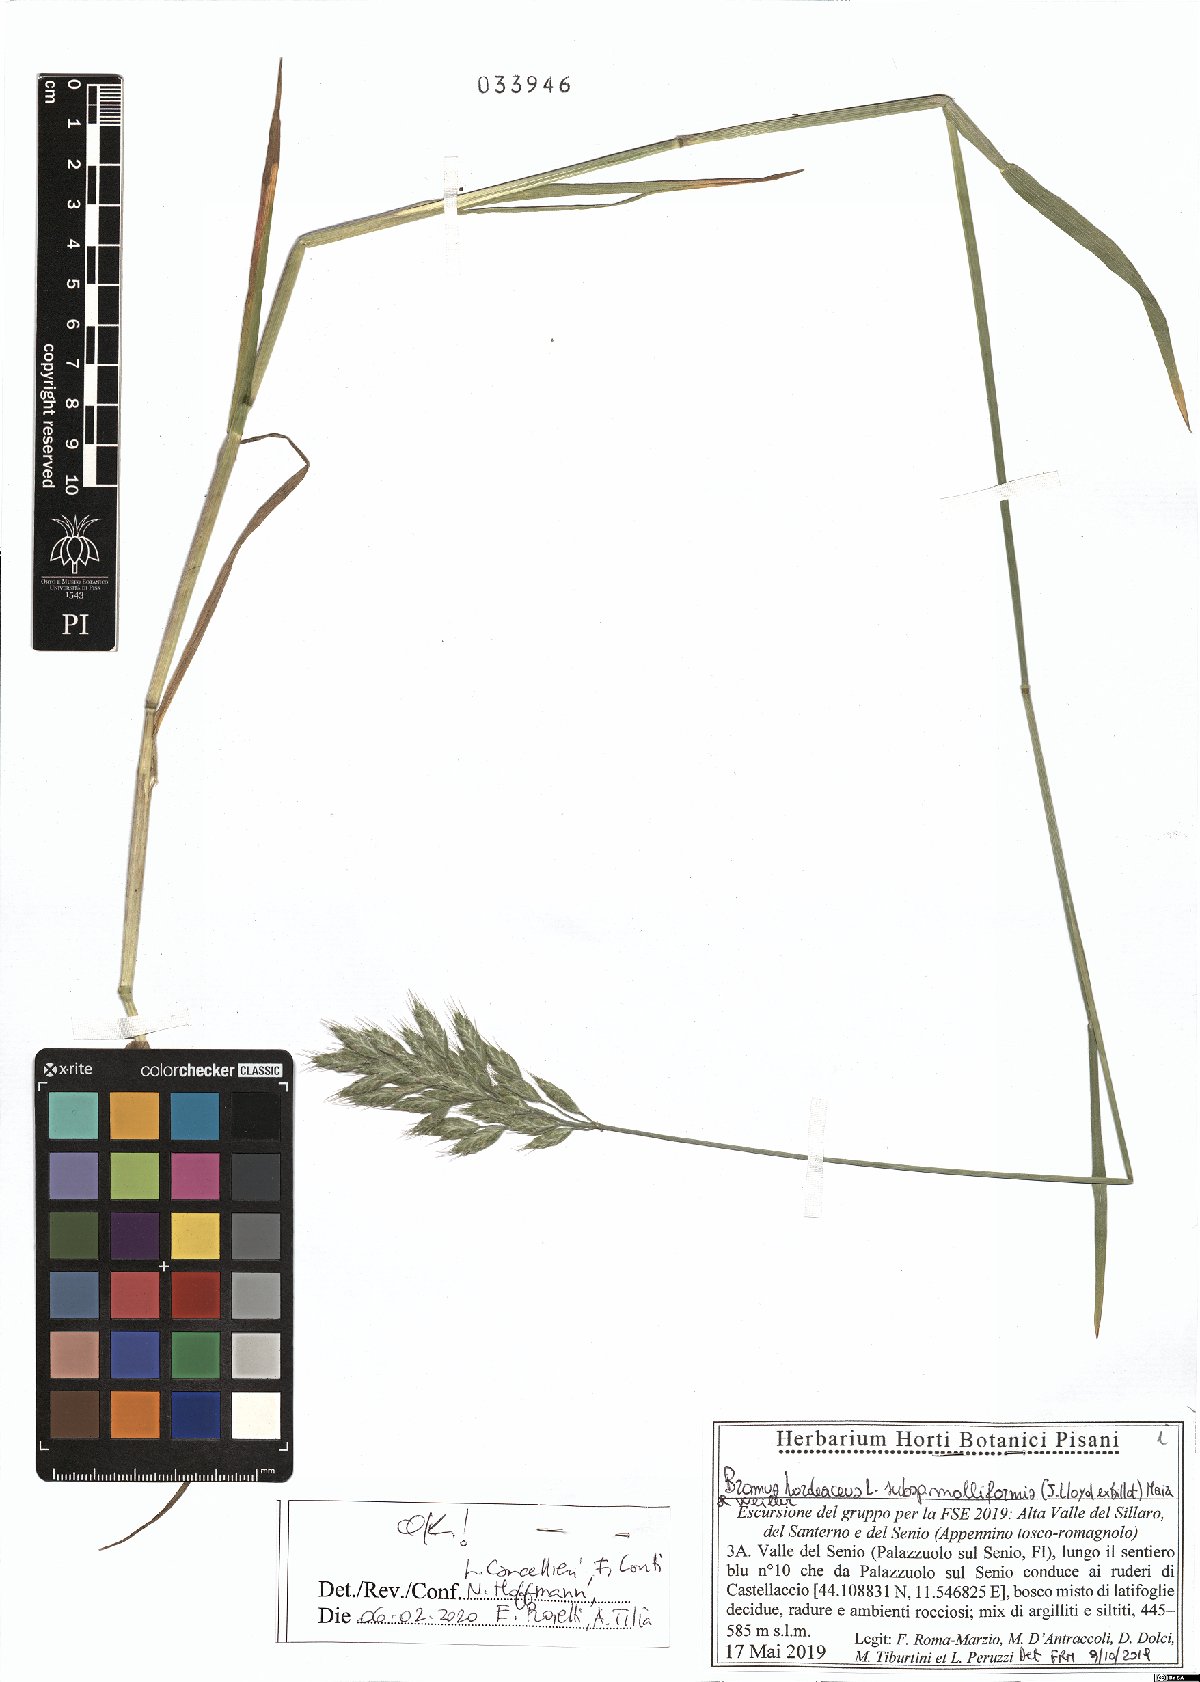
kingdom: Plantae
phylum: Tracheophyta
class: Liliopsida
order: Poales
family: Poaceae
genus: Bromus
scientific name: Bromus hordeaceus
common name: Soft brome
